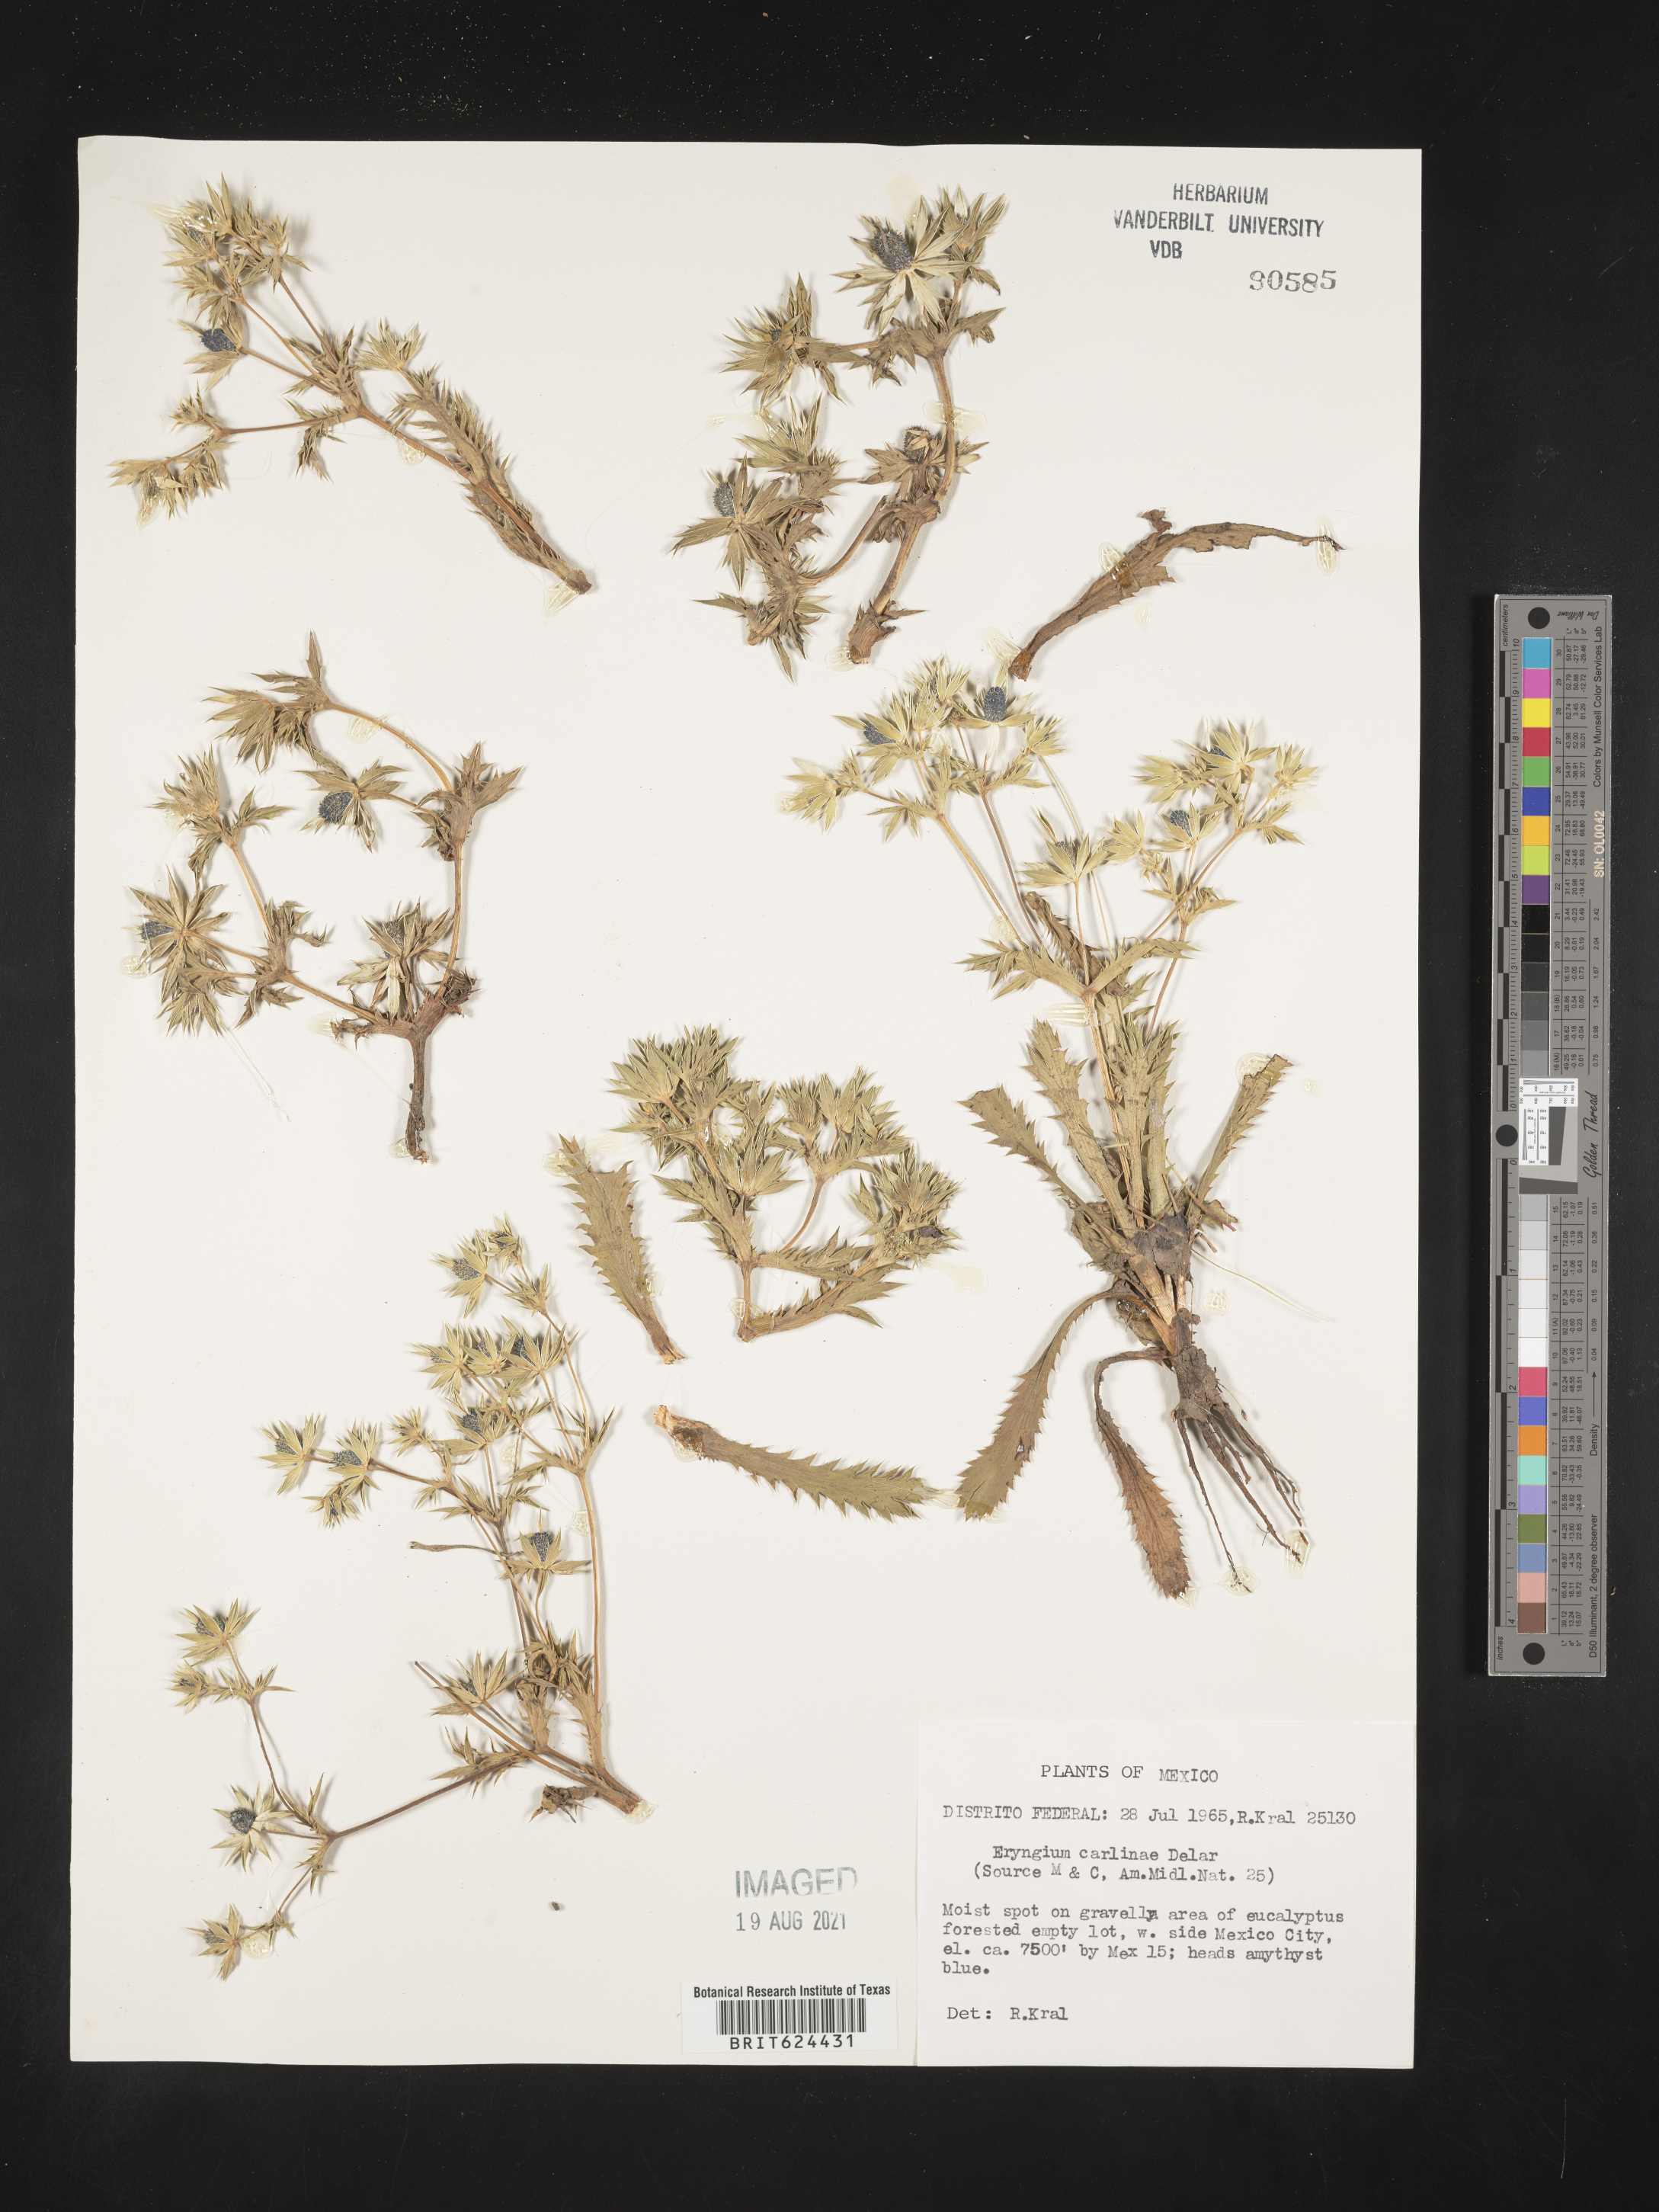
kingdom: Plantae
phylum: Tracheophyta
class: Magnoliopsida
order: Apiales
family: Apiaceae
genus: Eryngium
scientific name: Eryngium
